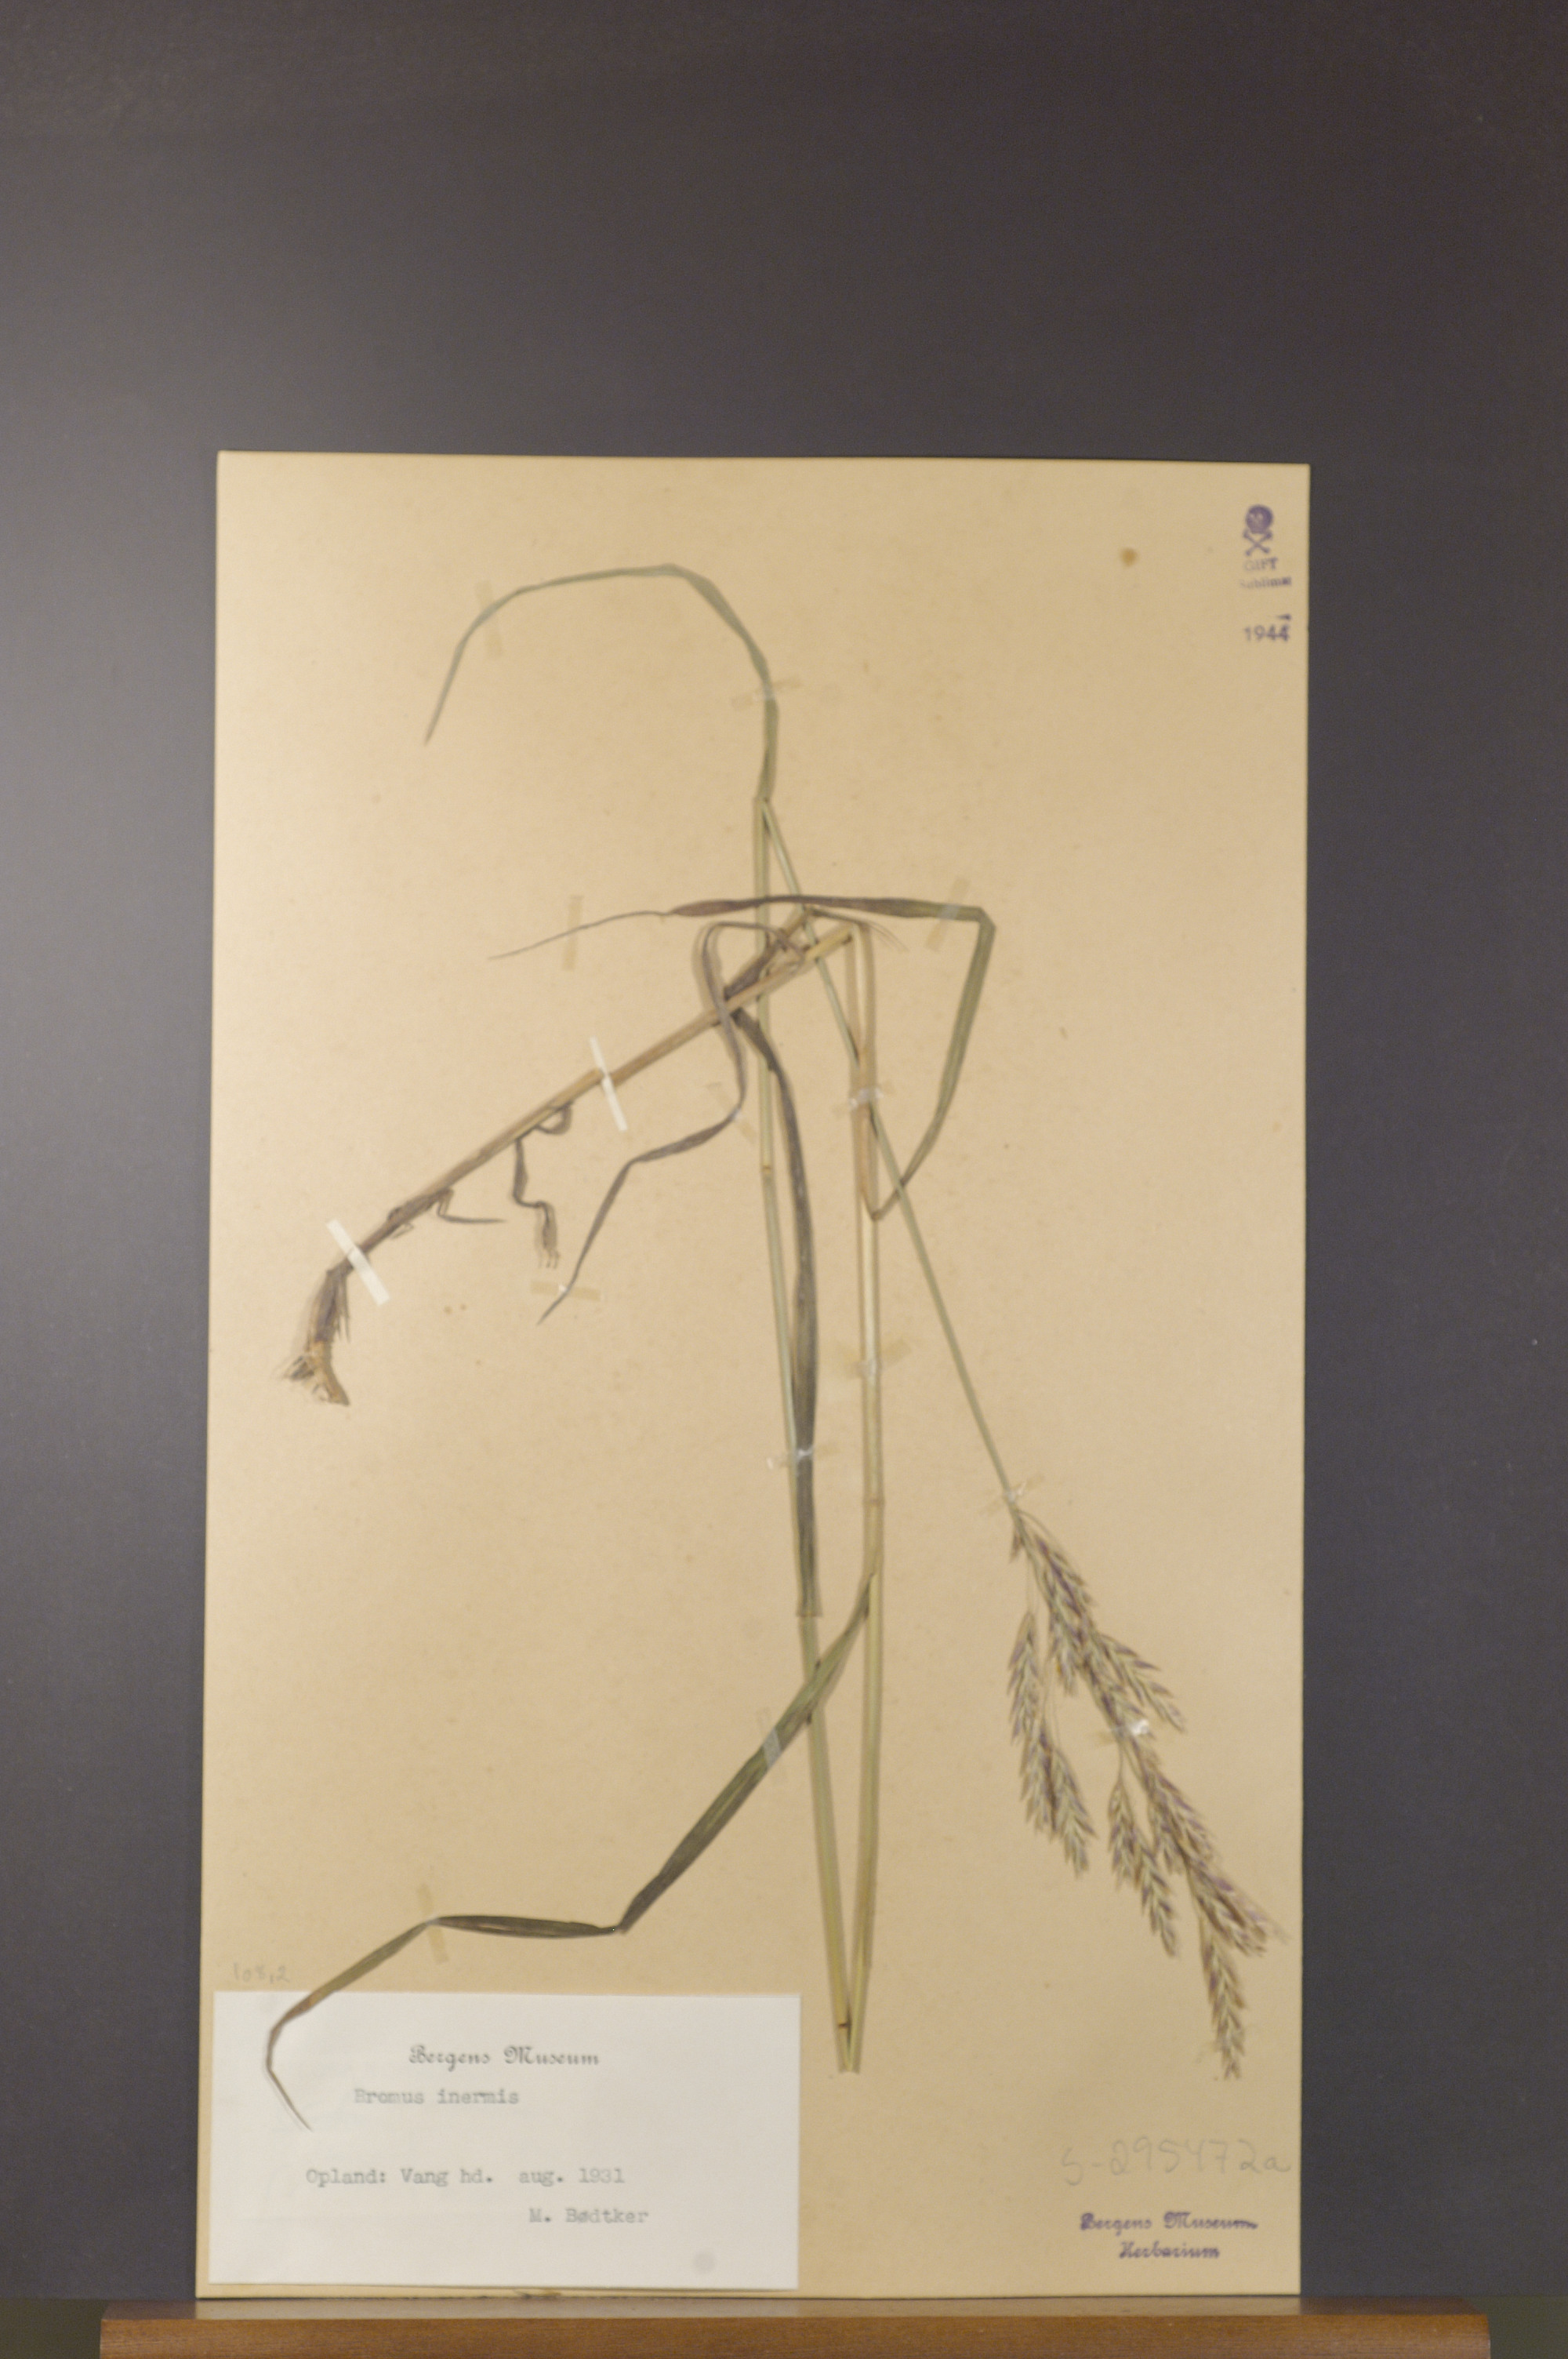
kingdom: Plantae
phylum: Tracheophyta
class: Liliopsida
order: Poales
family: Poaceae
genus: Bromus
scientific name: Bromus inermis
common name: Smooth brome
